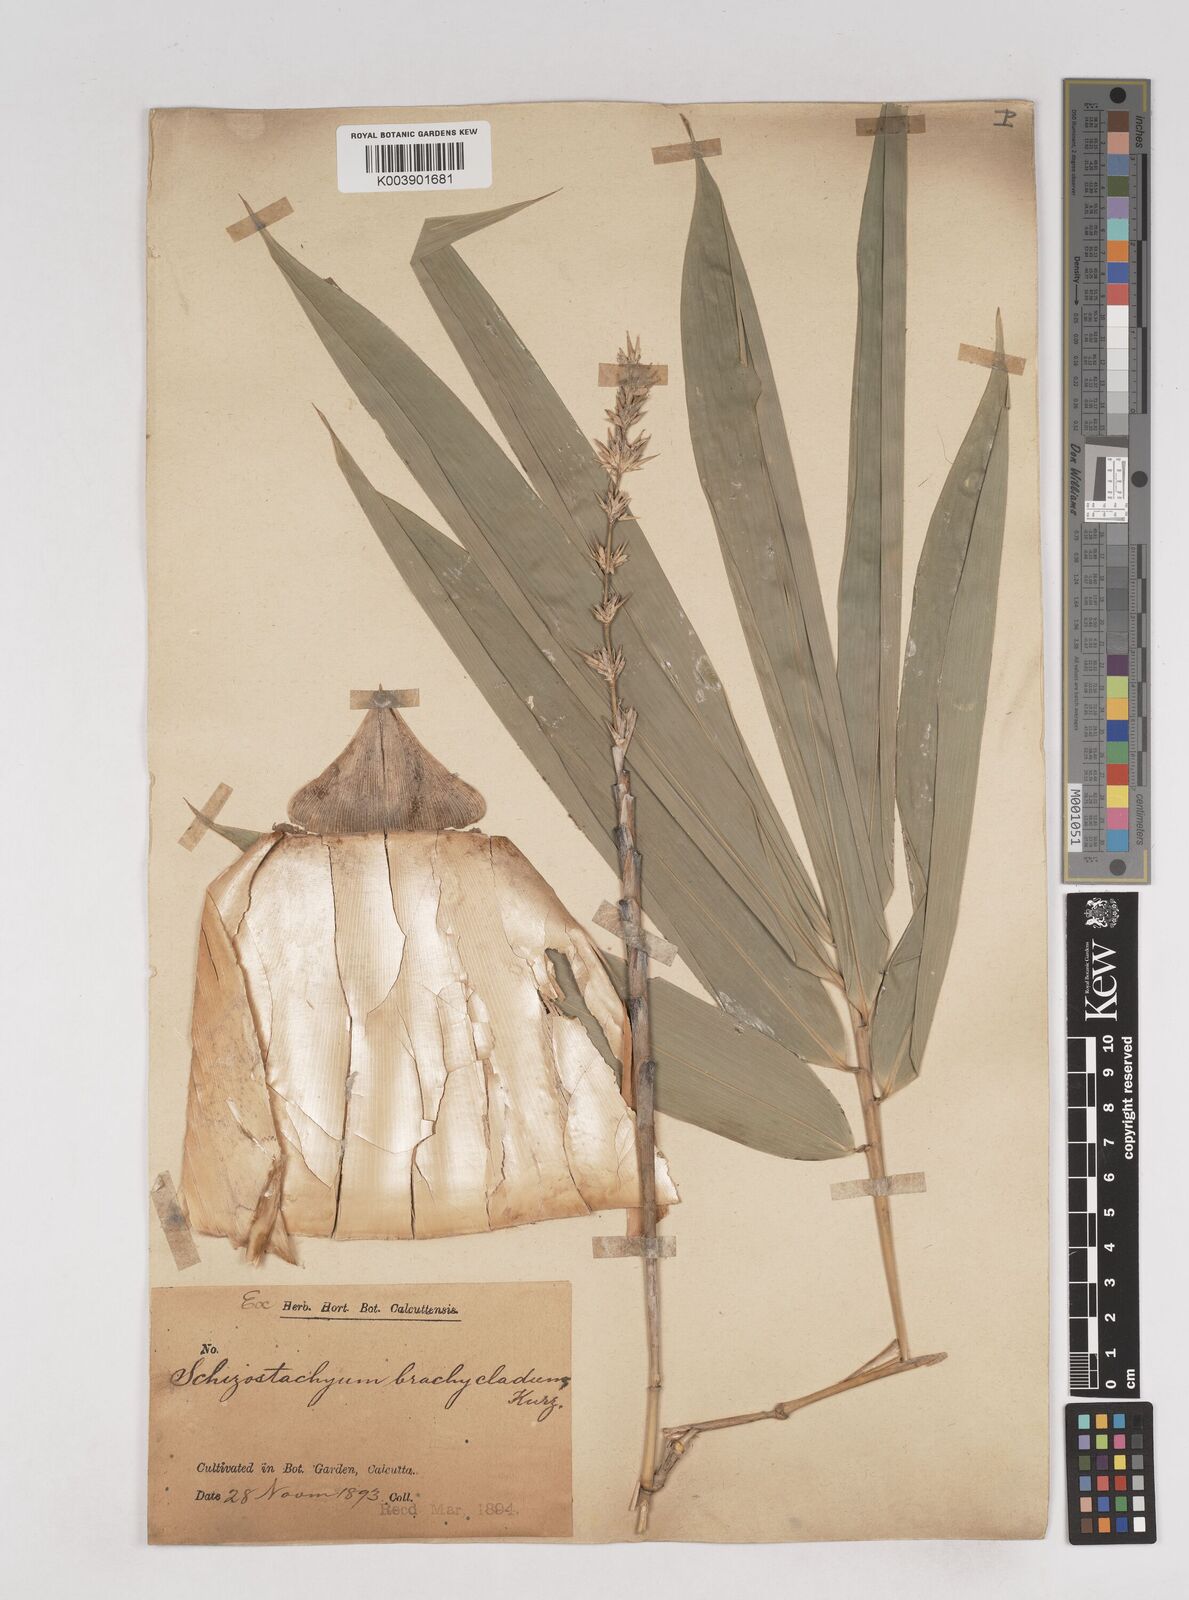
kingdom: Plantae
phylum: Tracheophyta
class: Liliopsida
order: Poales
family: Poaceae
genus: Schizostachyum
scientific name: Schizostachyum brachycladum
